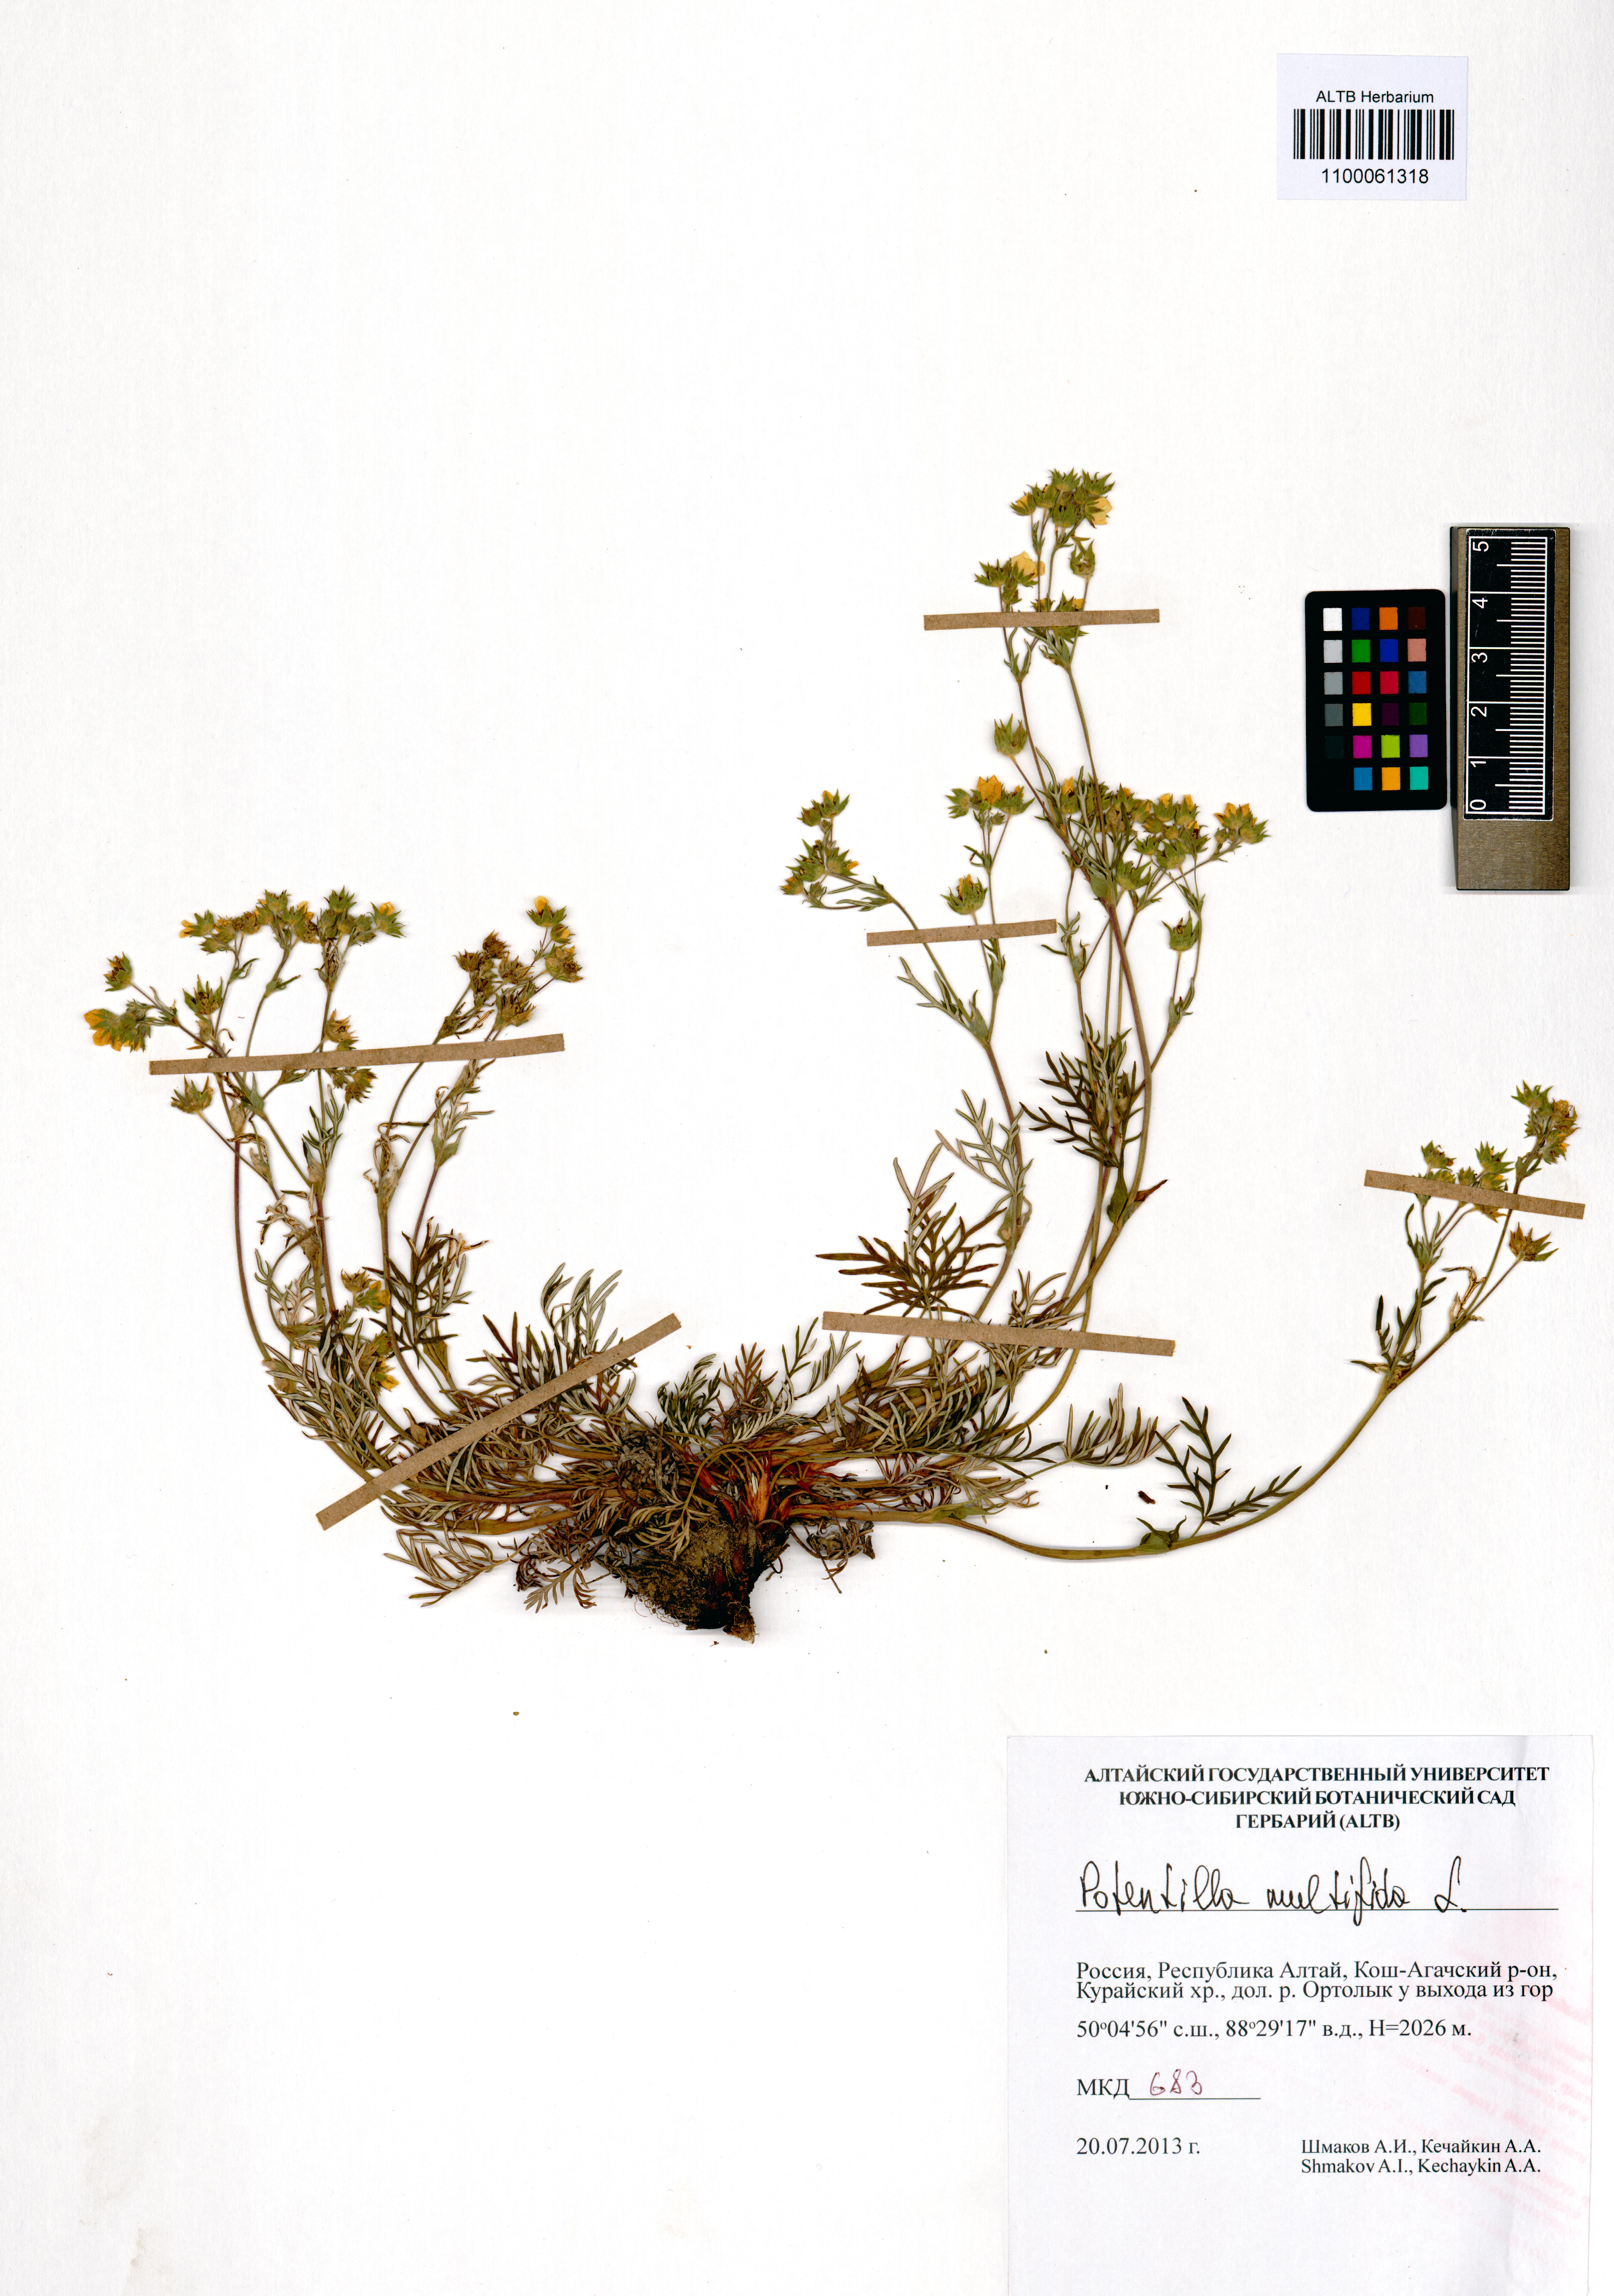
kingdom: Plantae
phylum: Tracheophyta
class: Magnoliopsida
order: Rosales
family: Rosaceae
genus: Potentilla
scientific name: Potentilla multifida
